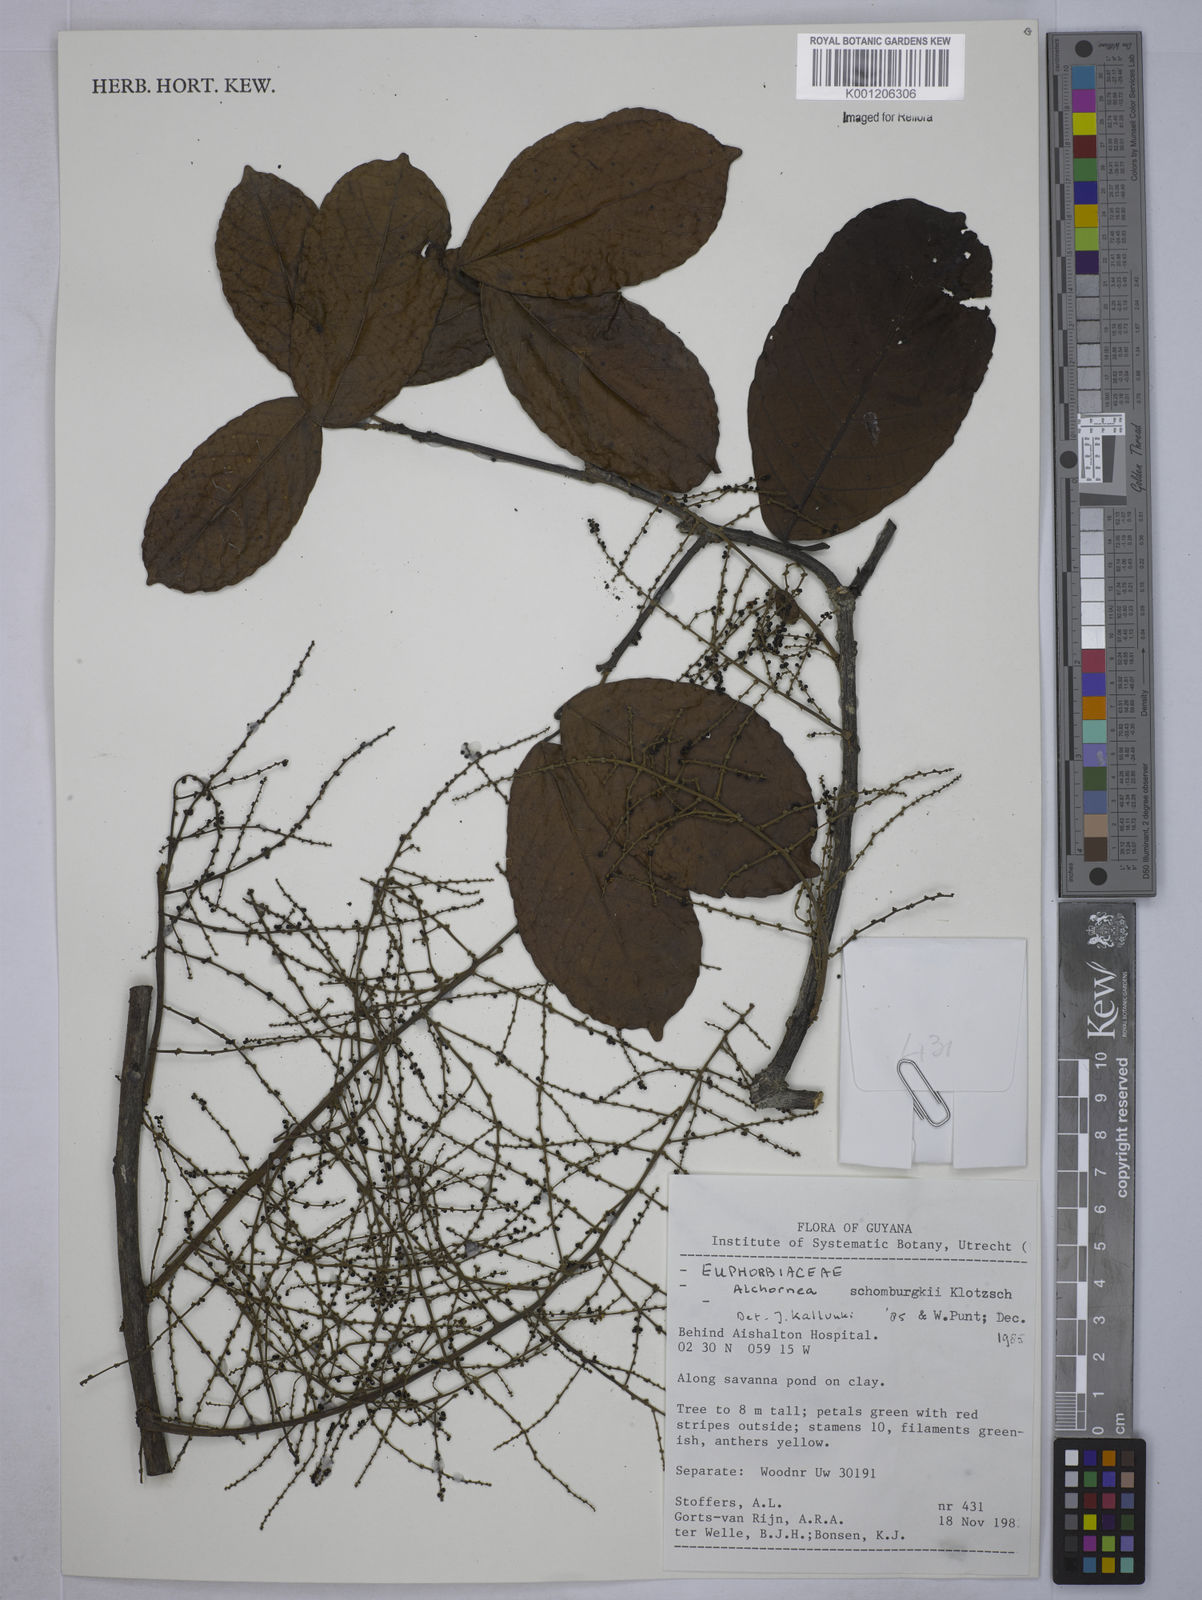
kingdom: Plantae
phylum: Tracheophyta
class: Magnoliopsida
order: Malpighiales
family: Euphorbiaceae
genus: Alchornea
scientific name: Alchornea discolor
